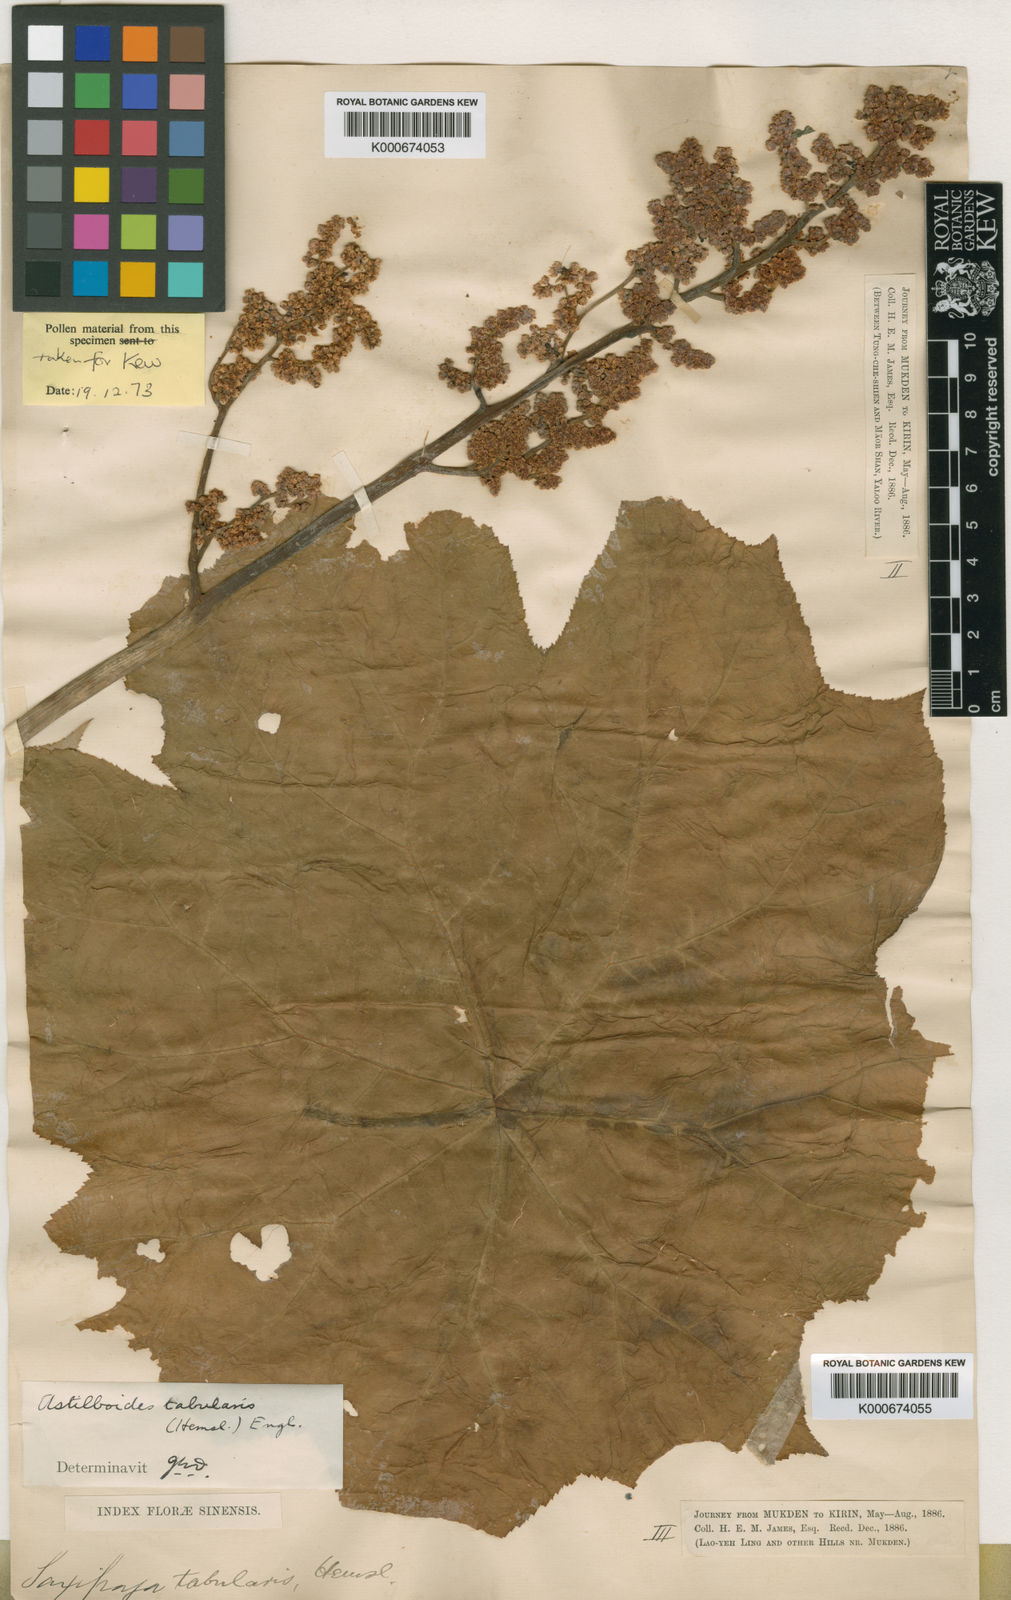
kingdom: Plantae
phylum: Tracheophyta
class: Magnoliopsida
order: Saxifragales
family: Saxifragaceae
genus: Astilboides
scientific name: Astilboides tabularis
